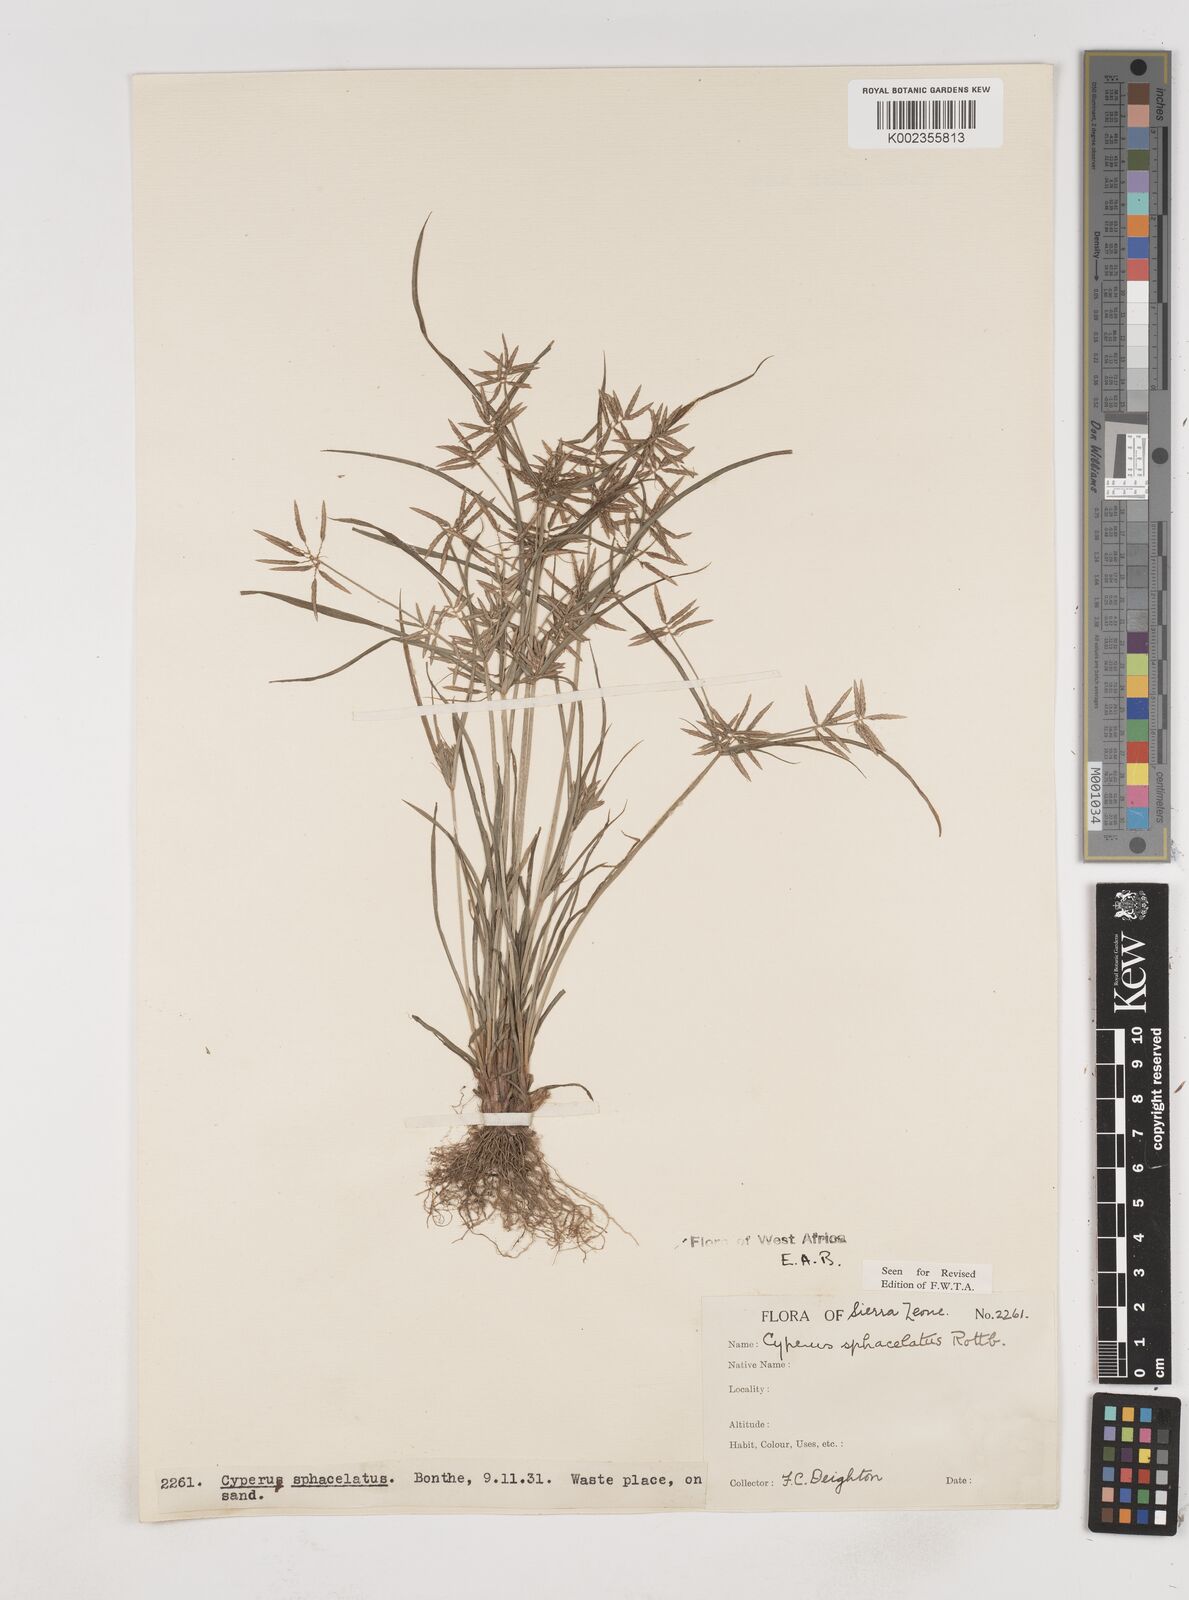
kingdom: Plantae
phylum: Tracheophyta
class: Liliopsida
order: Poales
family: Cyperaceae
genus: Cyperus
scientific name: Cyperus sphacelatus
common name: Roadside flatsedge
